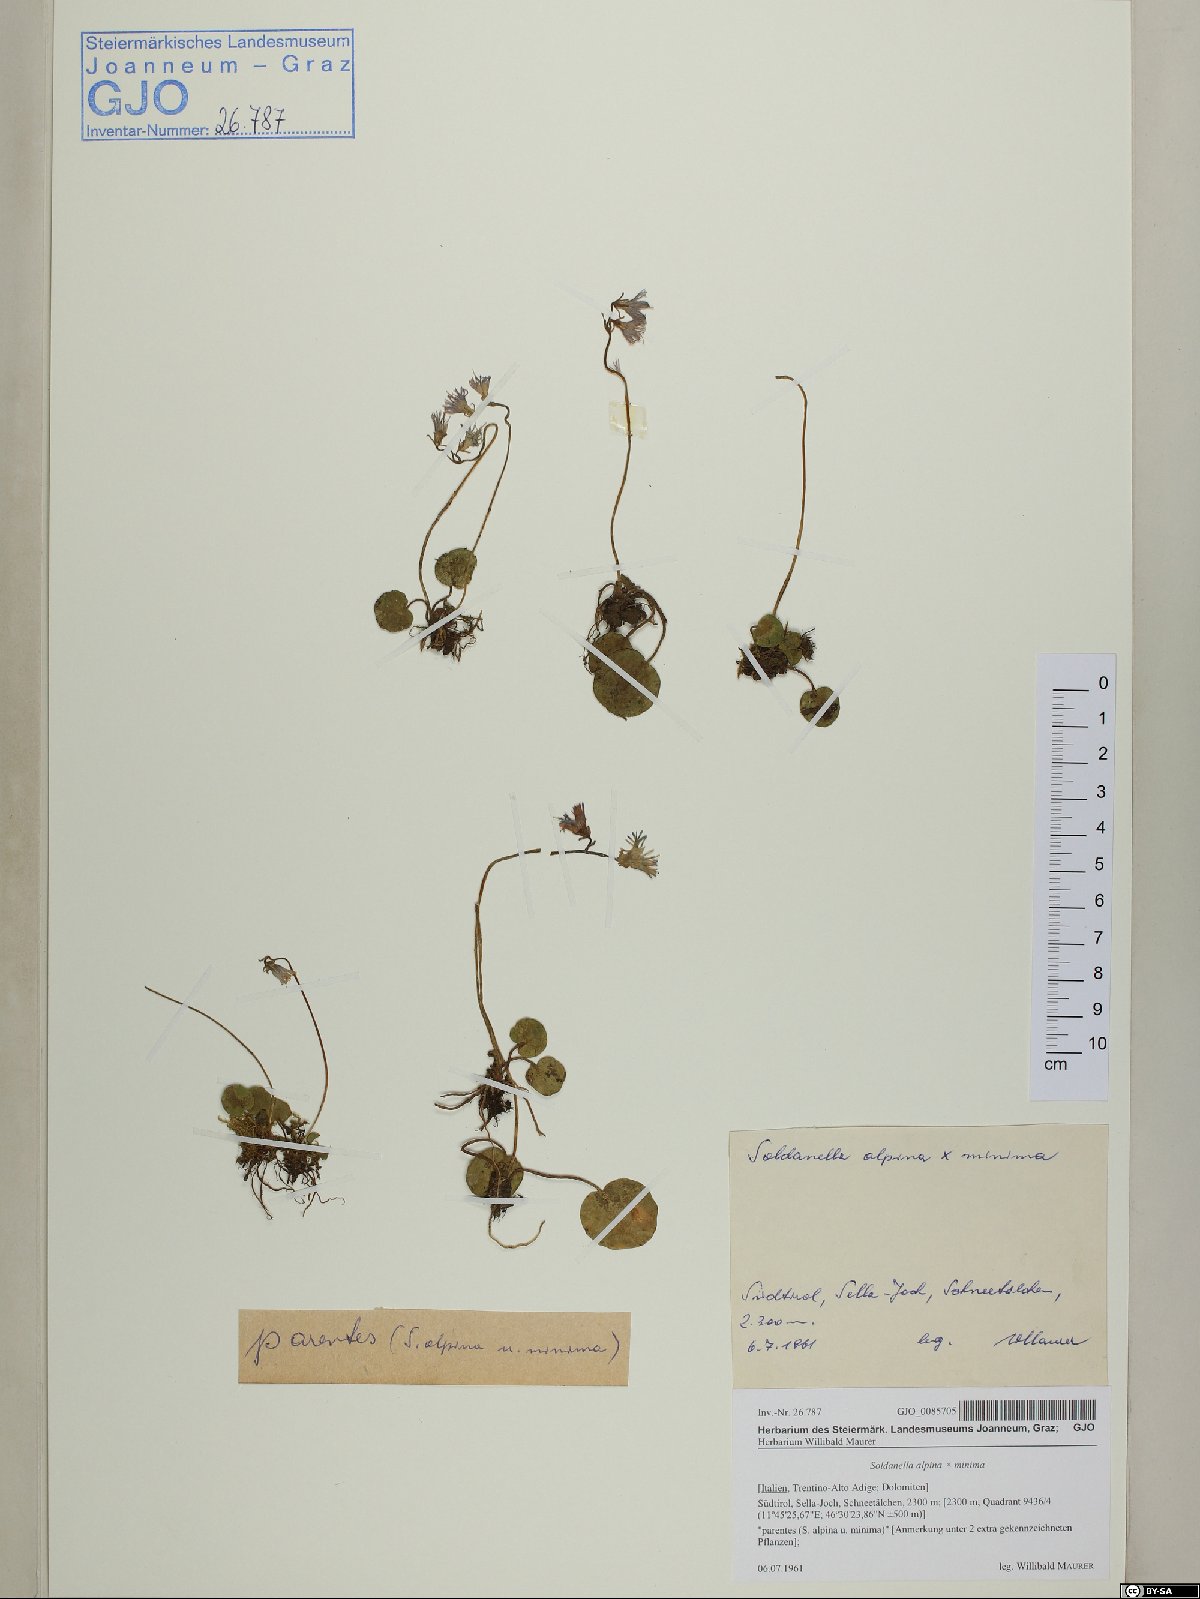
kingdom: Plantae
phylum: Tracheophyta
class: Magnoliopsida
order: Ericales
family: Primulaceae
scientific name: Primulaceae
